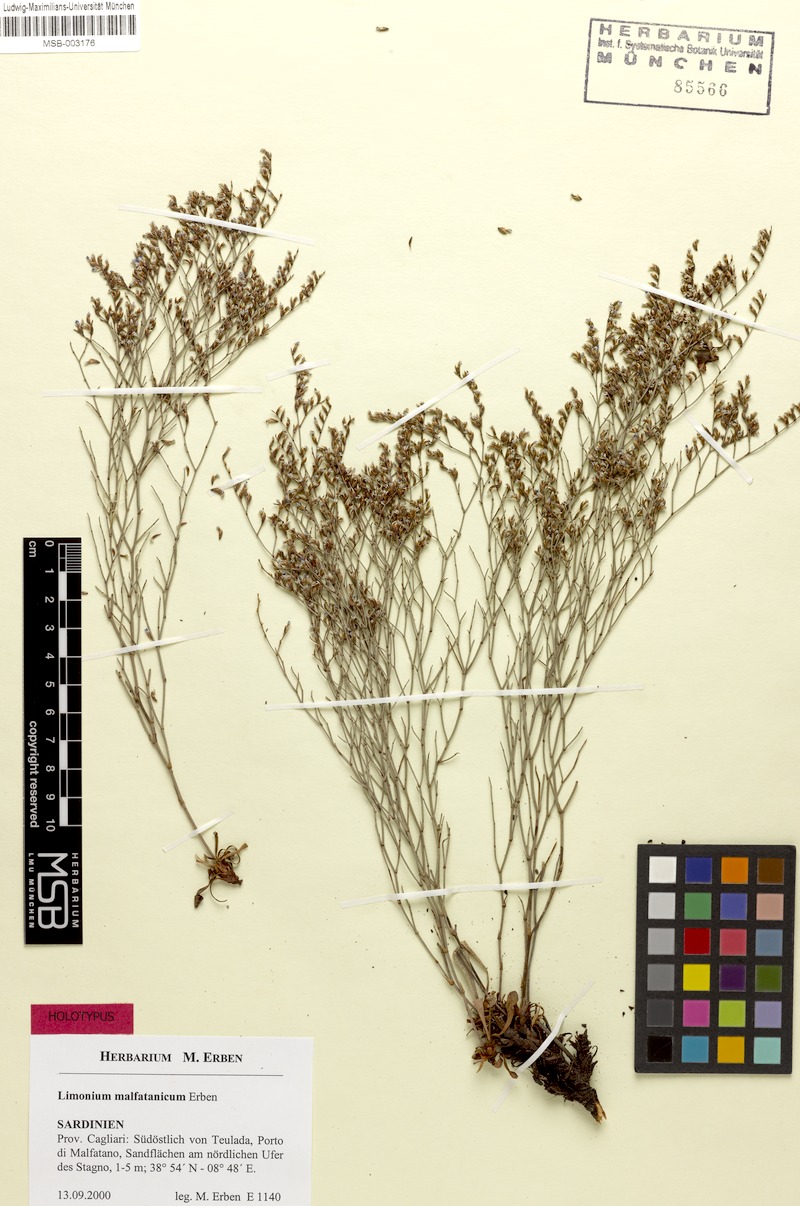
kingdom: Plantae
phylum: Tracheophyta
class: Magnoliopsida
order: Caryophyllales
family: Plumbaginaceae
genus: Limonium
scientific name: Limonium malfatanicum
